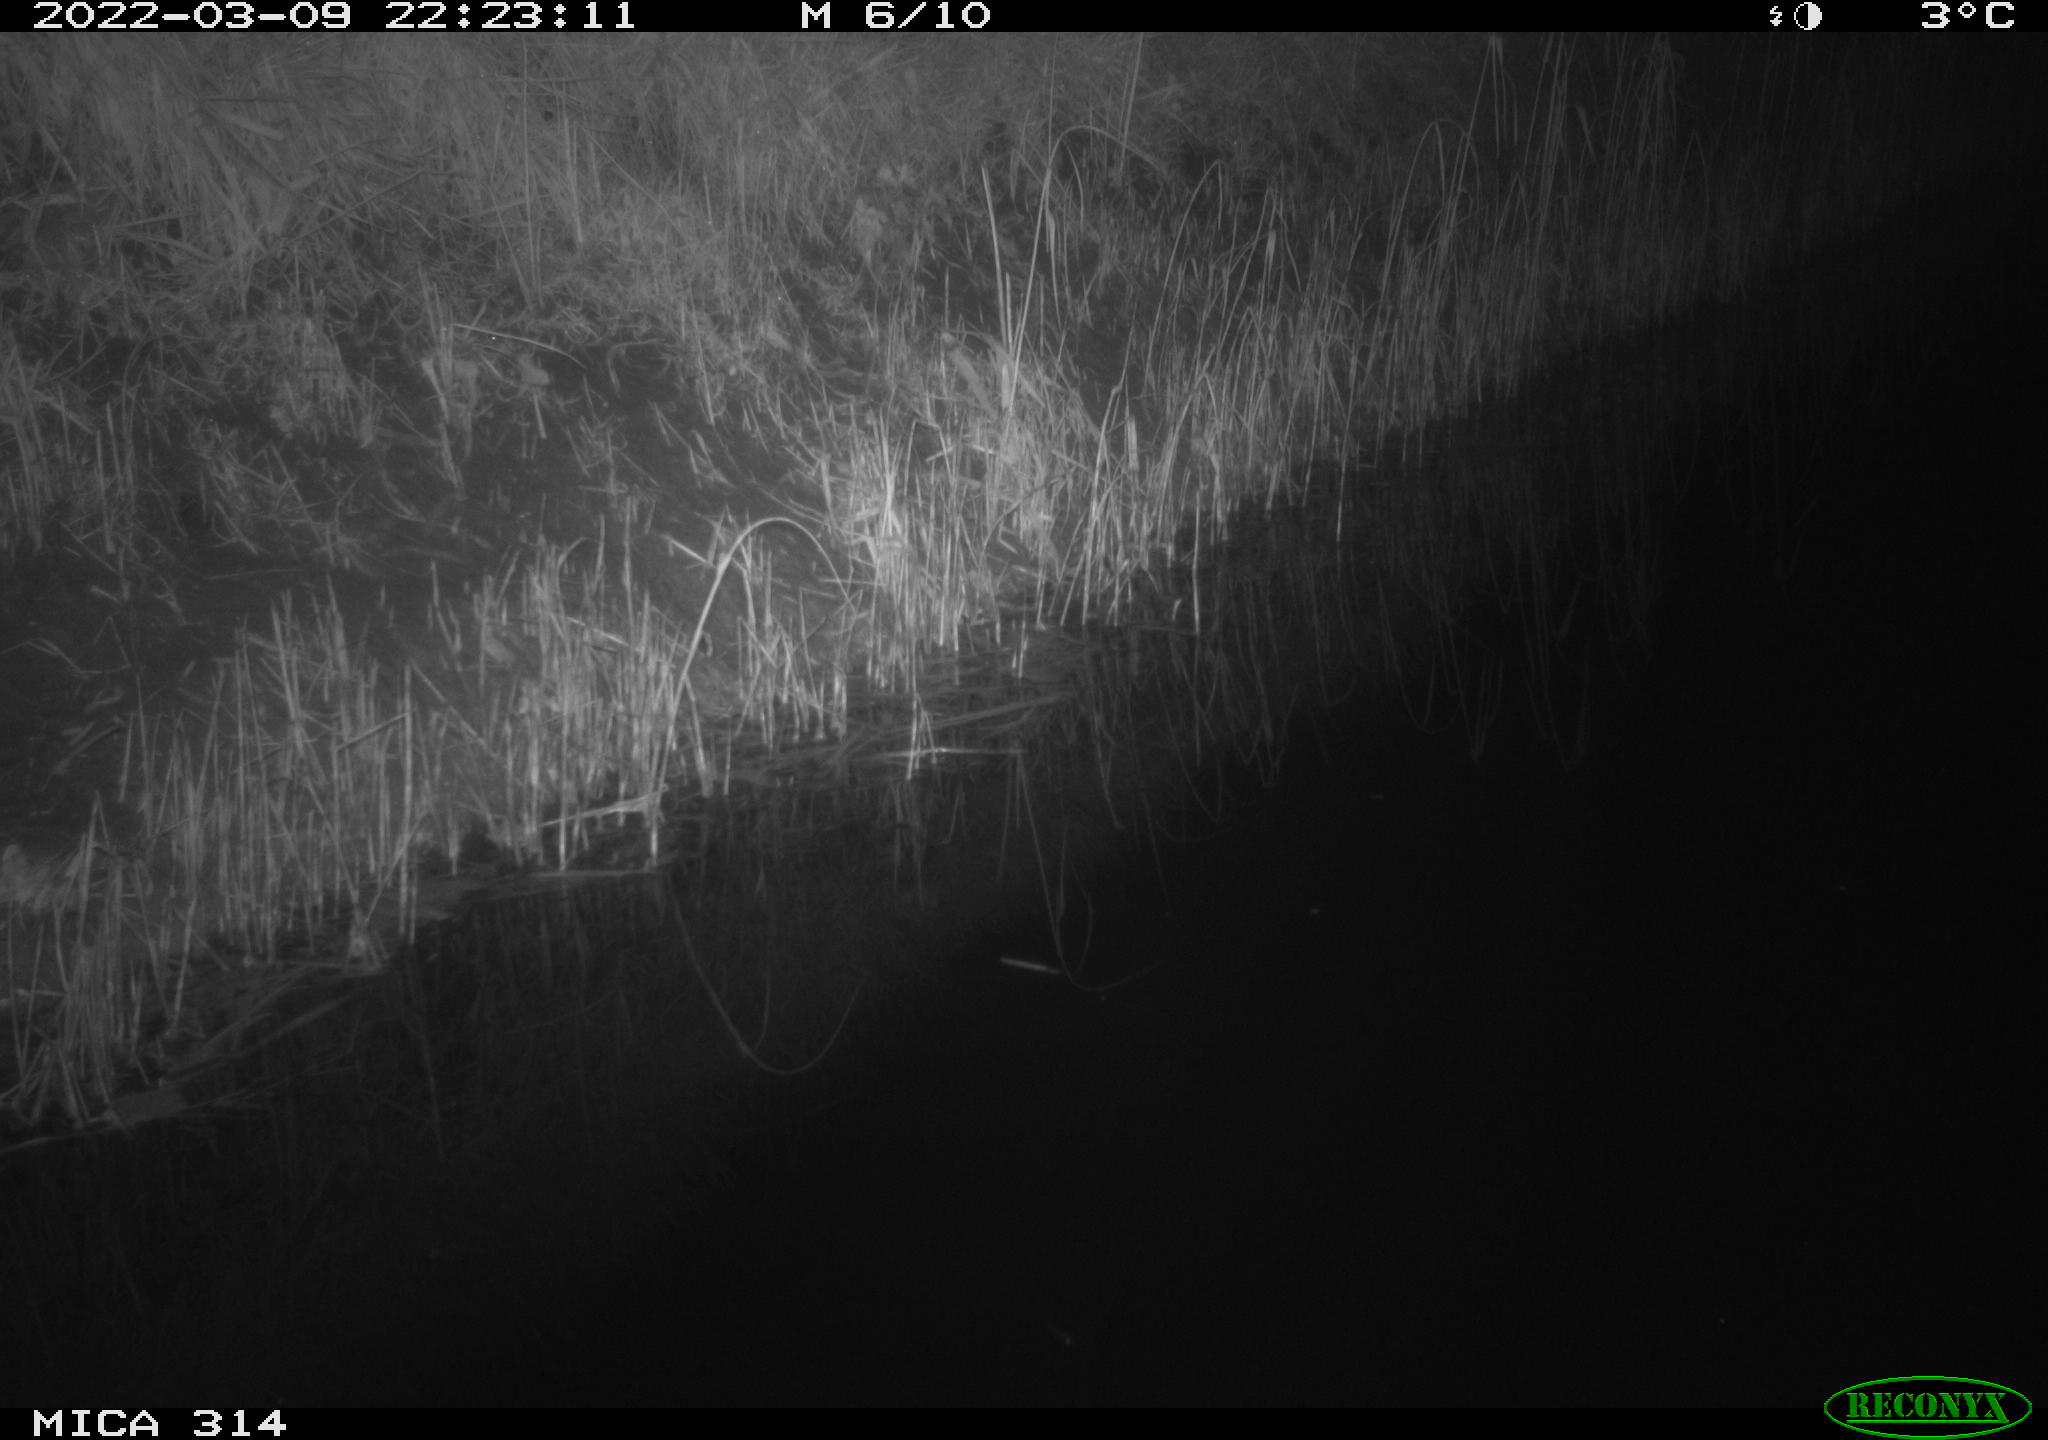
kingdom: Animalia
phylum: Chordata
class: Aves
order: Anseriformes
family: Anatidae
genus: Anas
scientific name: Anas platyrhynchos
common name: Mallard
